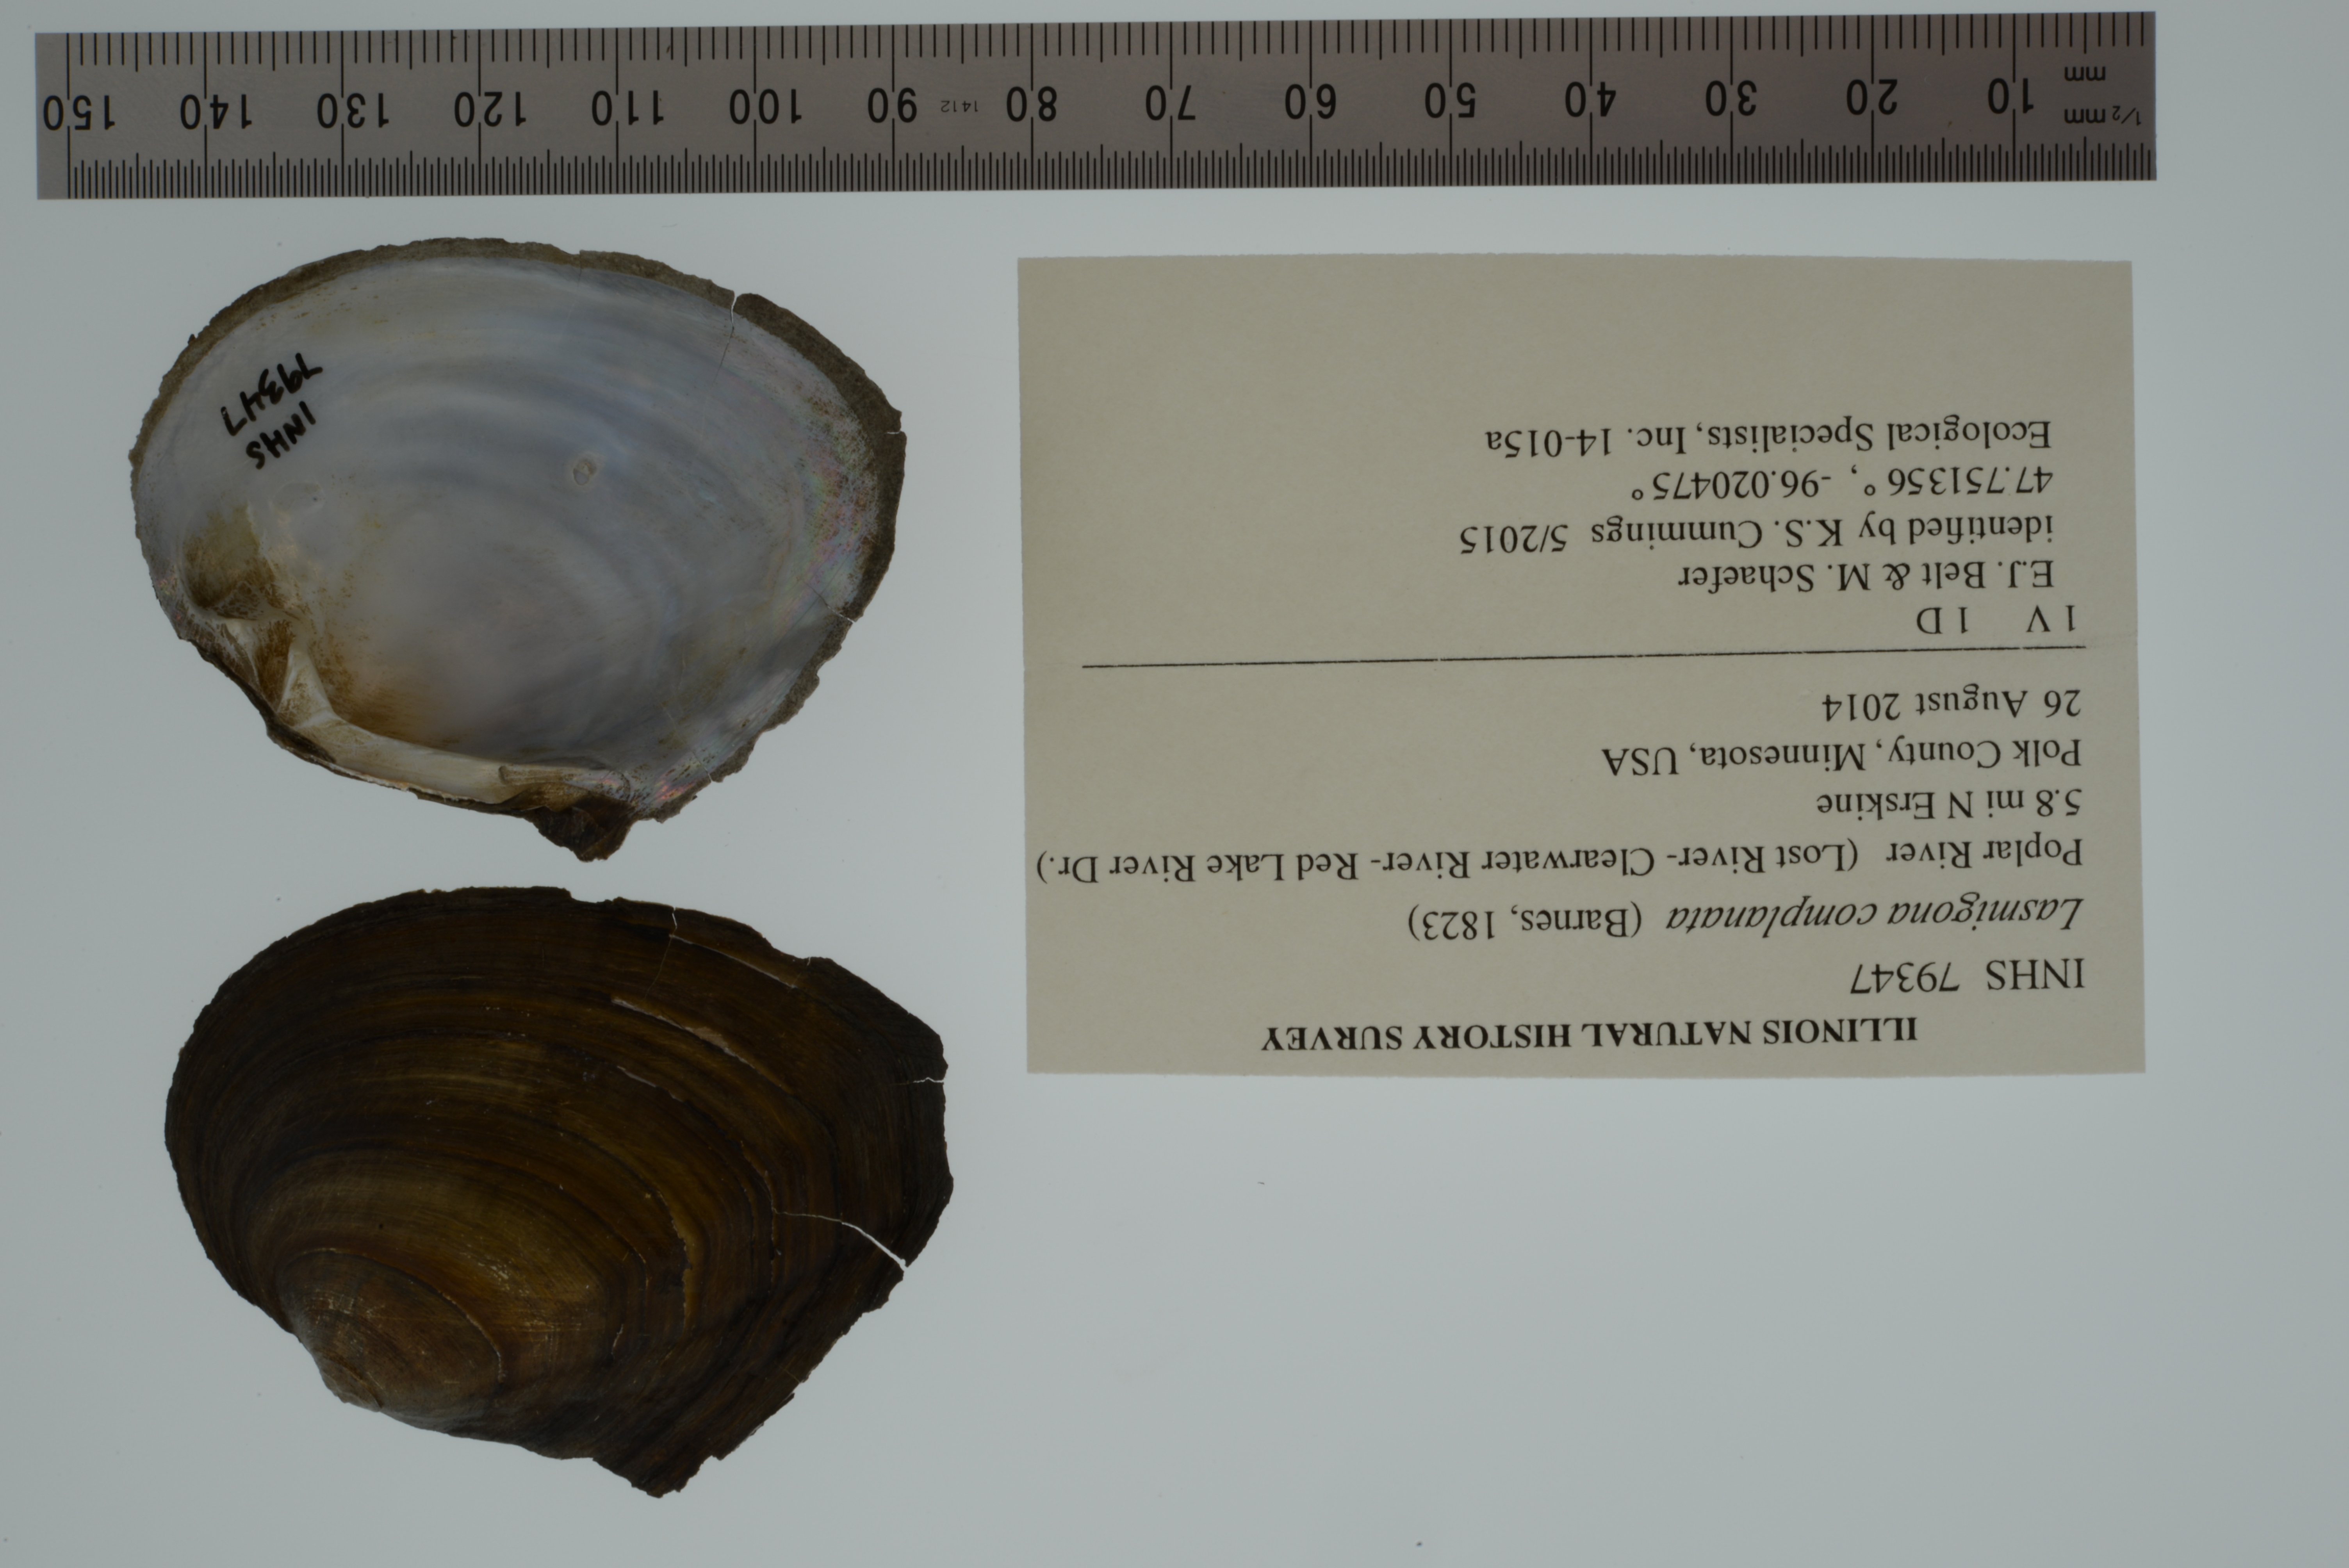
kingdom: Animalia
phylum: Mollusca
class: Bivalvia
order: Unionida
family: Unionidae
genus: Lasmigona
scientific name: Lasmigona complanata
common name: White heelsplitter
